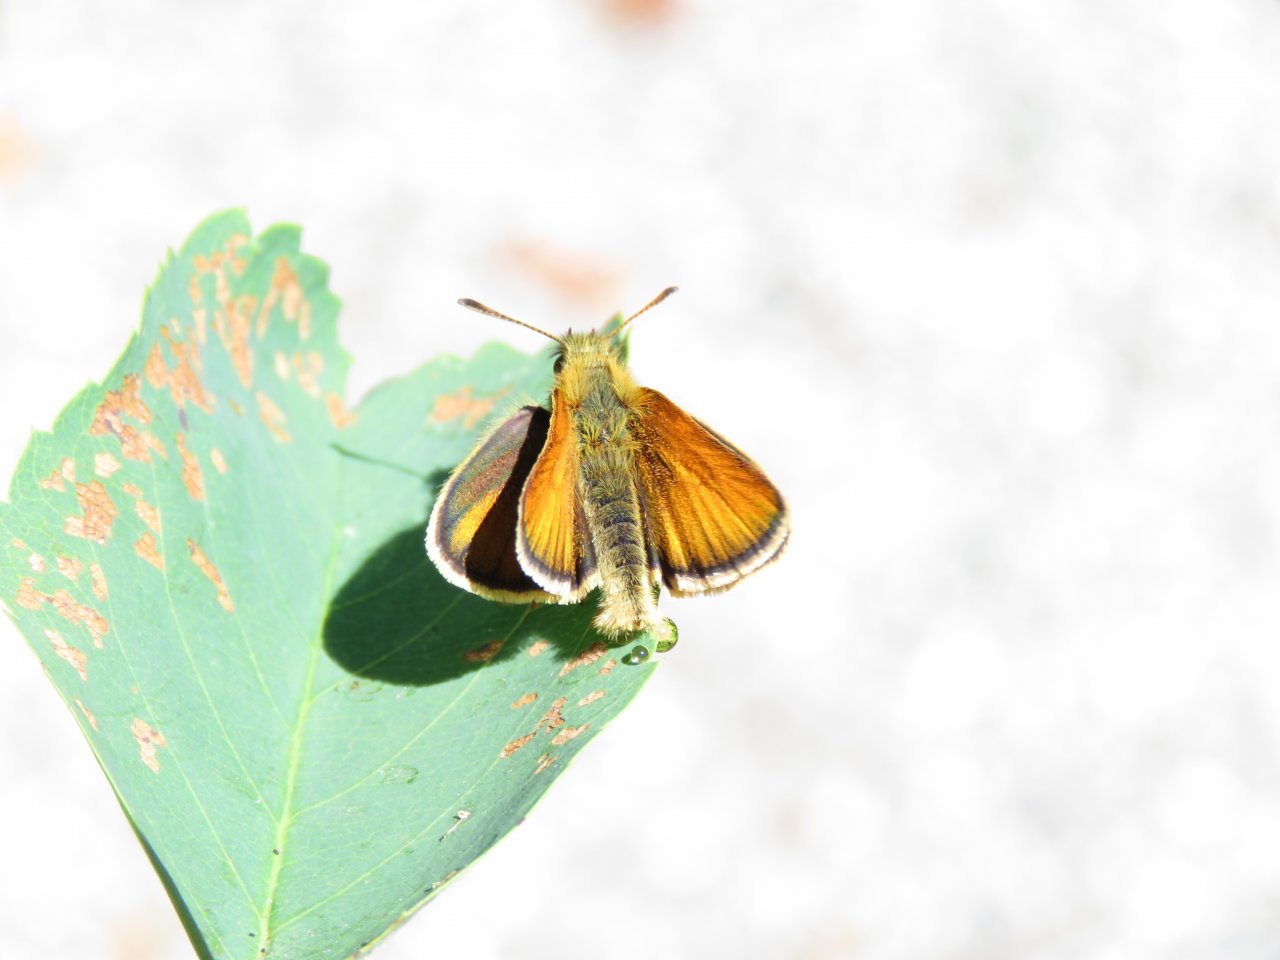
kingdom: Animalia
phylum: Arthropoda
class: Insecta
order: Lepidoptera
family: Hesperiidae
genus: Thymelicus
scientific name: Thymelicus lineola
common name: European Skipper
